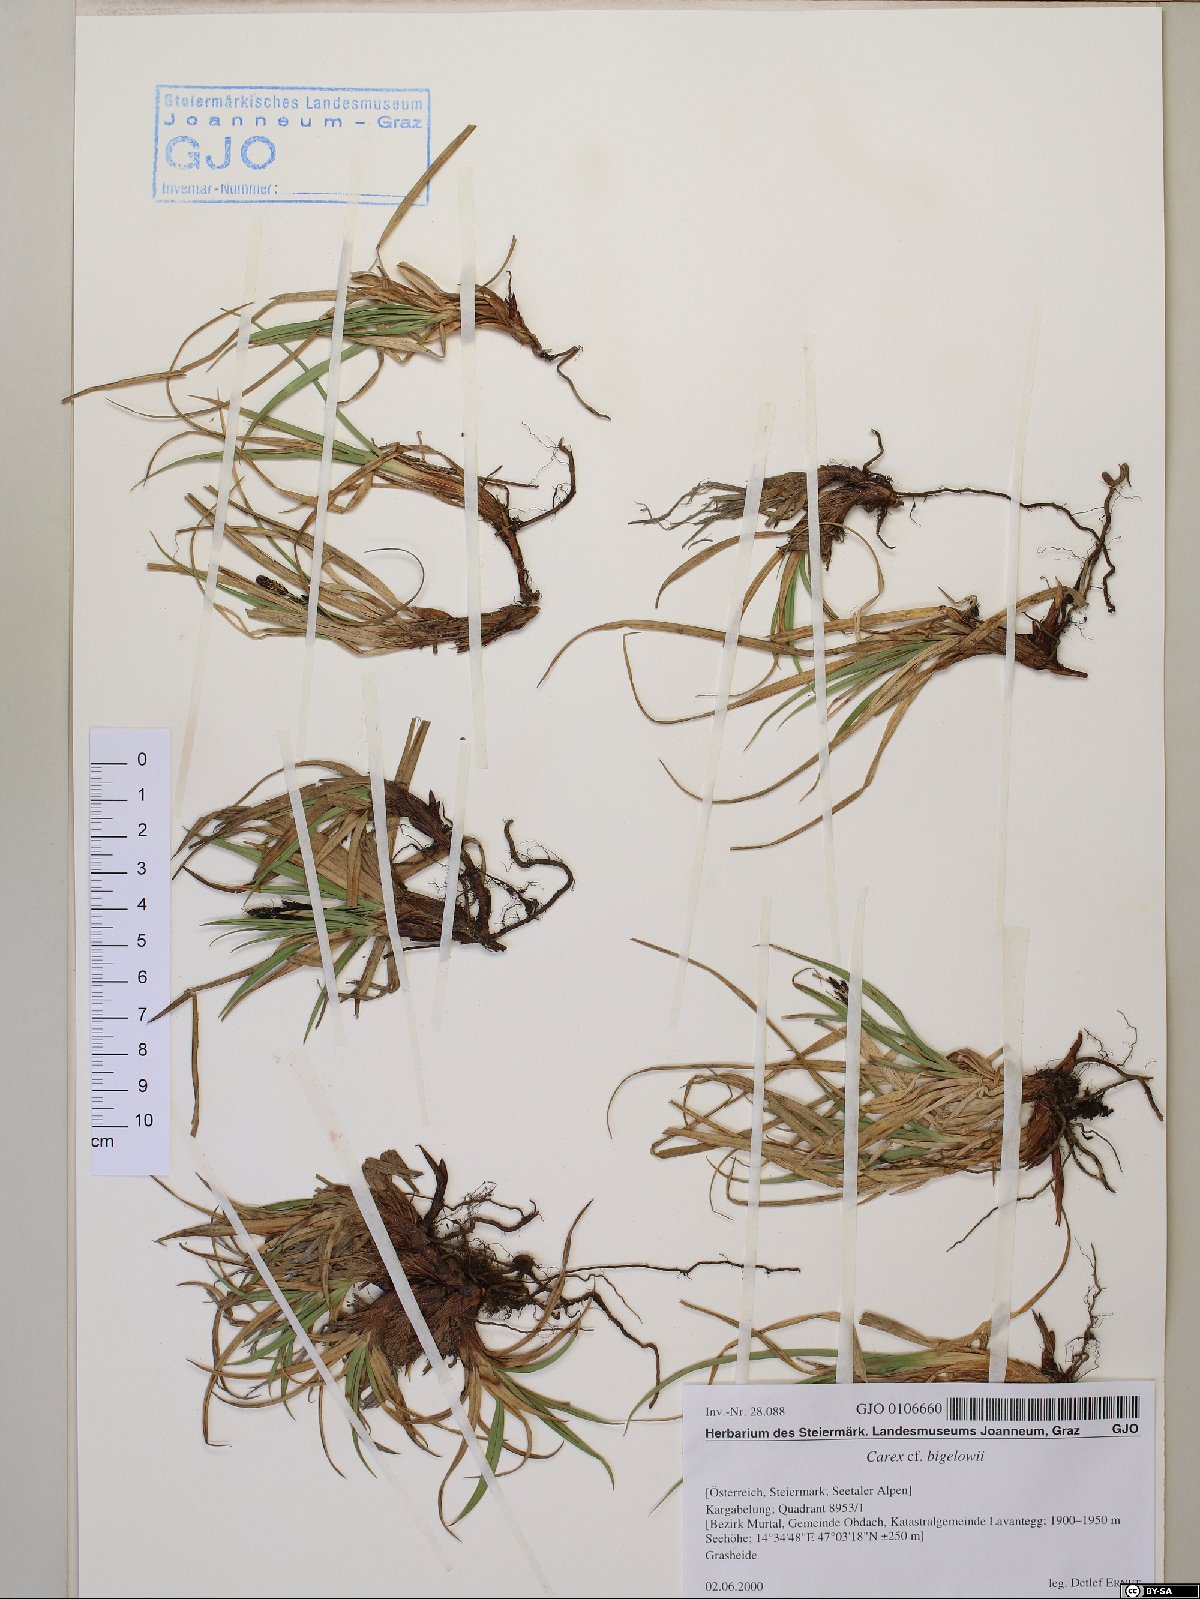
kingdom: Plantae
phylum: Tracheophyta
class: Liliopsida
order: Poales
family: Cyperaceae
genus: Carex
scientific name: Carex bigelowii
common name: Stiff sedge
